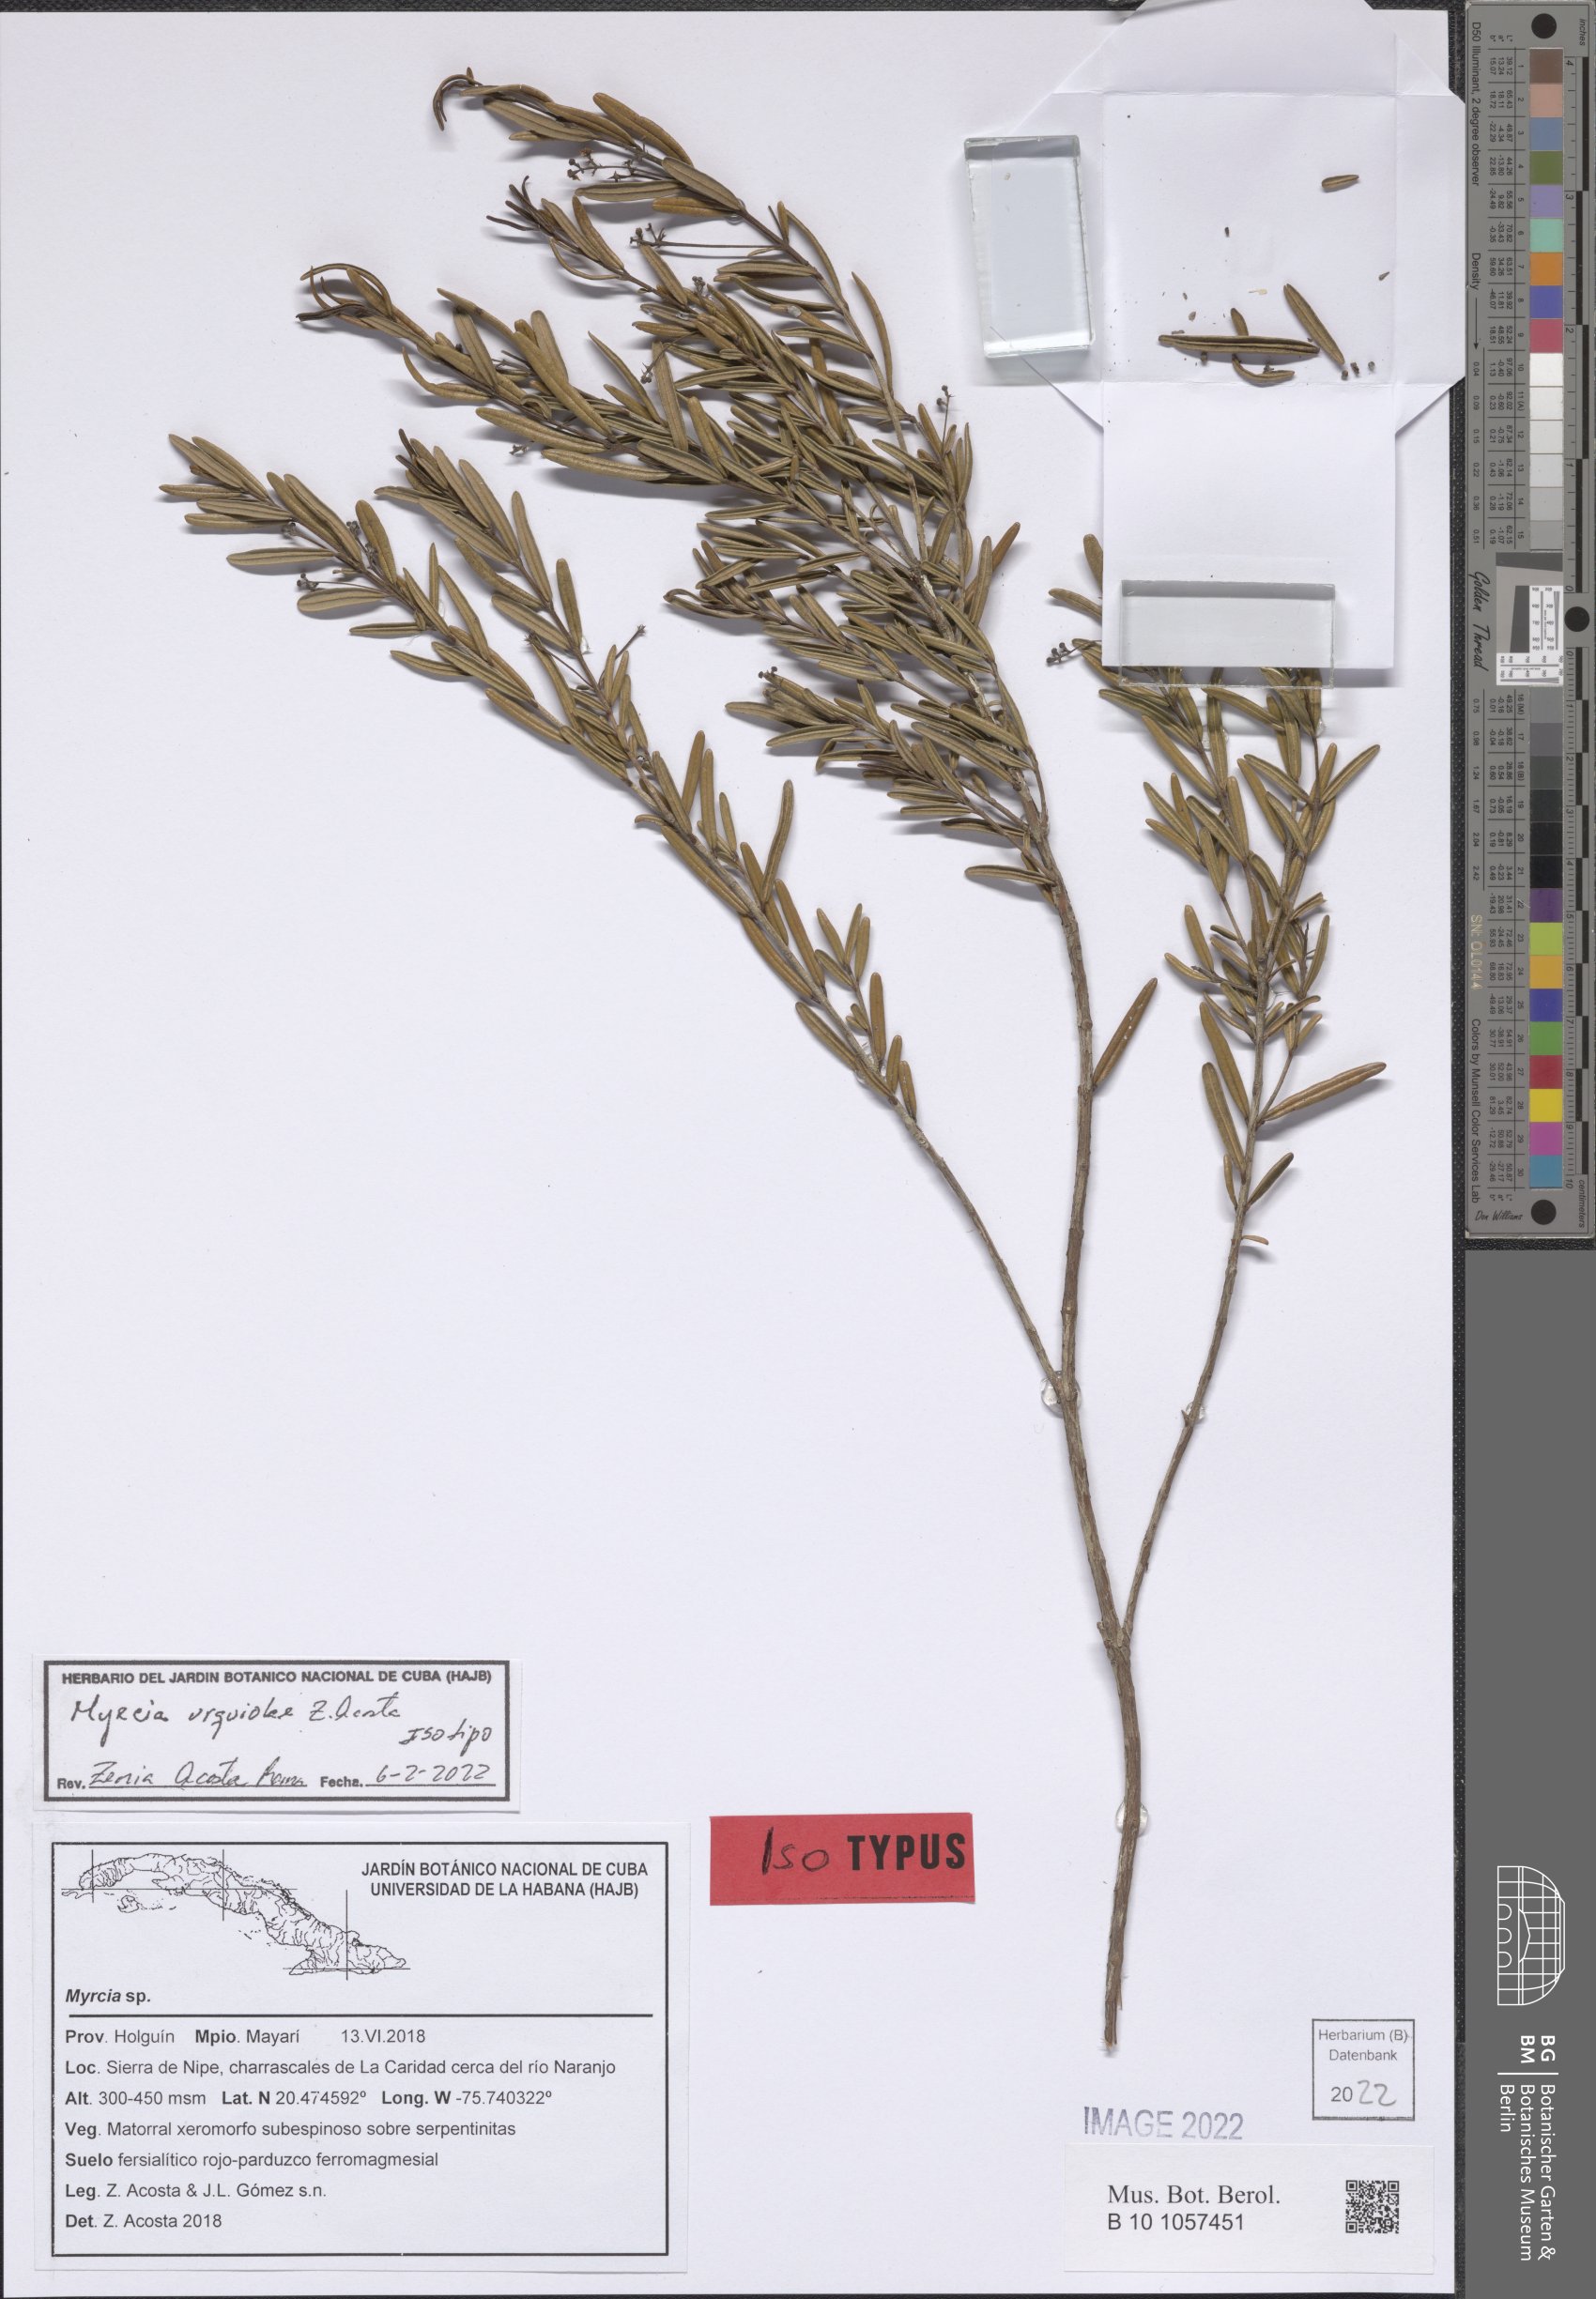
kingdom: Plantae
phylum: Tracheophyta
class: Magnoliopsida
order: Myrtales
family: Myrtaceae
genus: Myrcia
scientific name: Myrcia urquiolae
